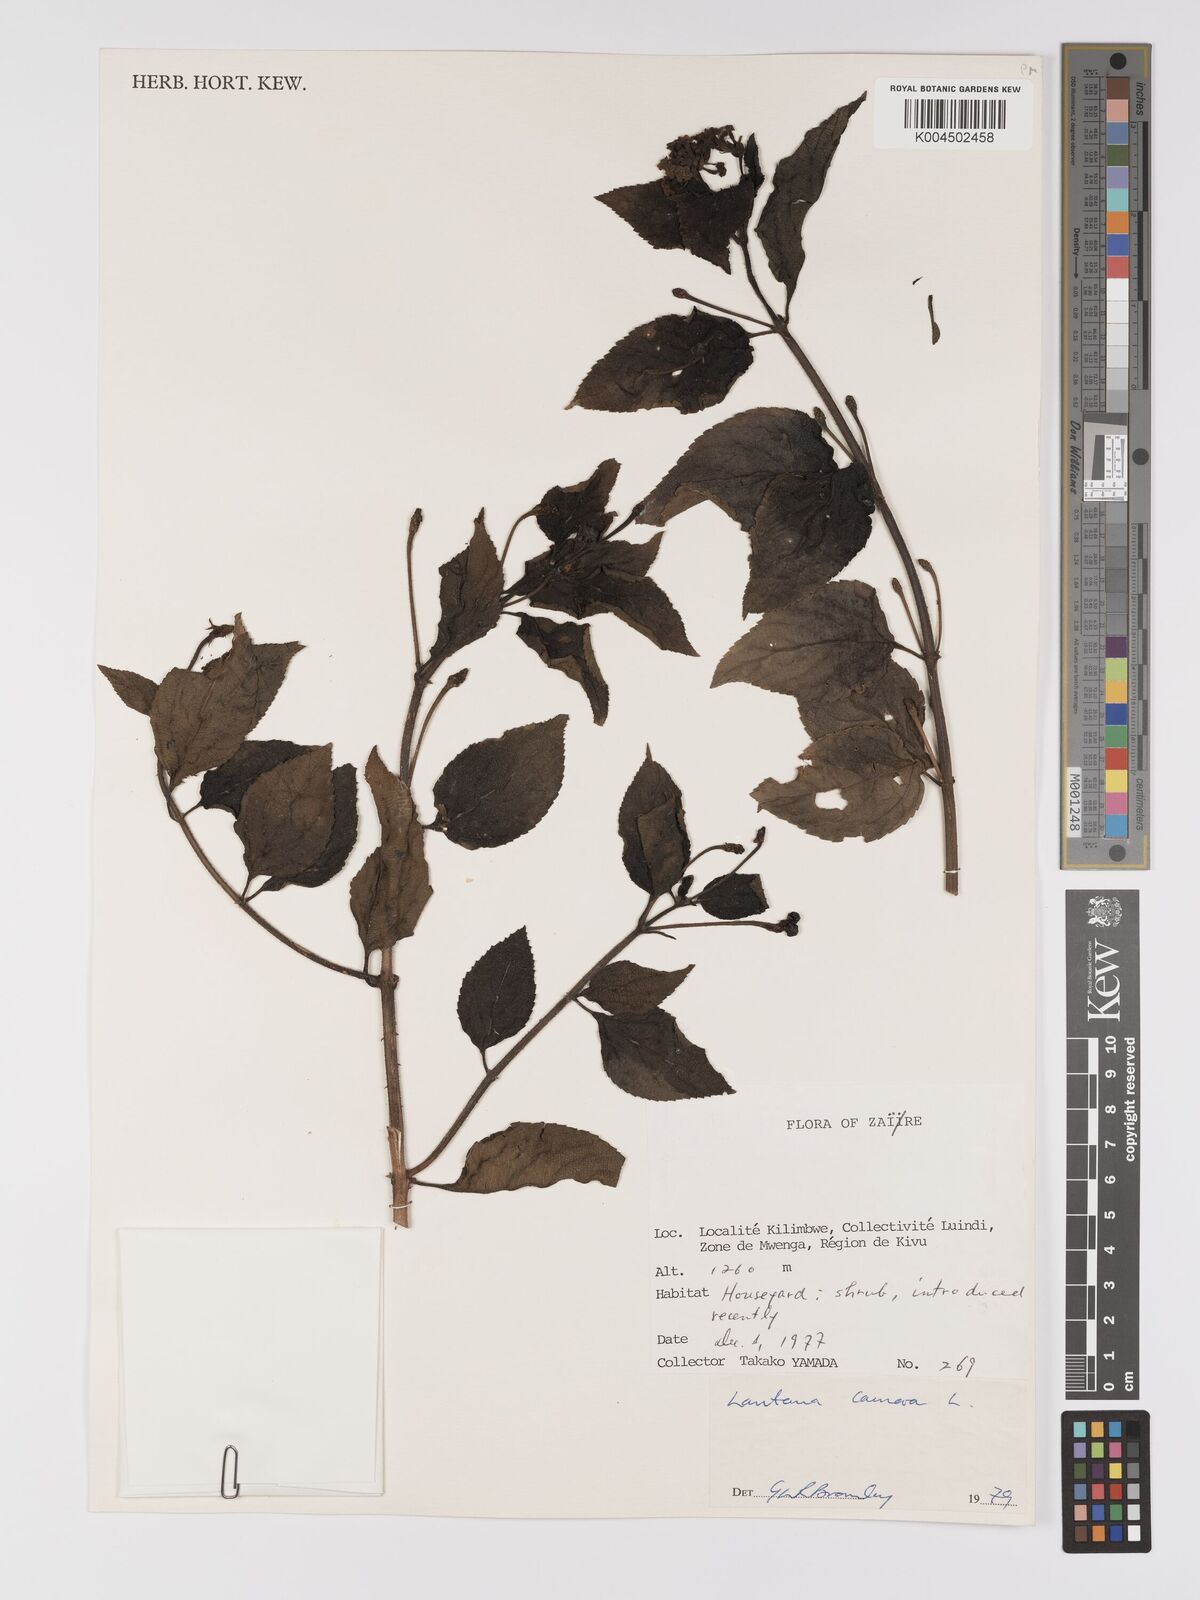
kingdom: Plantae
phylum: Tracheophyta
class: Magnoliopsida
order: Lamiales
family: Verbenaceae
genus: Lantana
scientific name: Lantana camara
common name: Lantana
